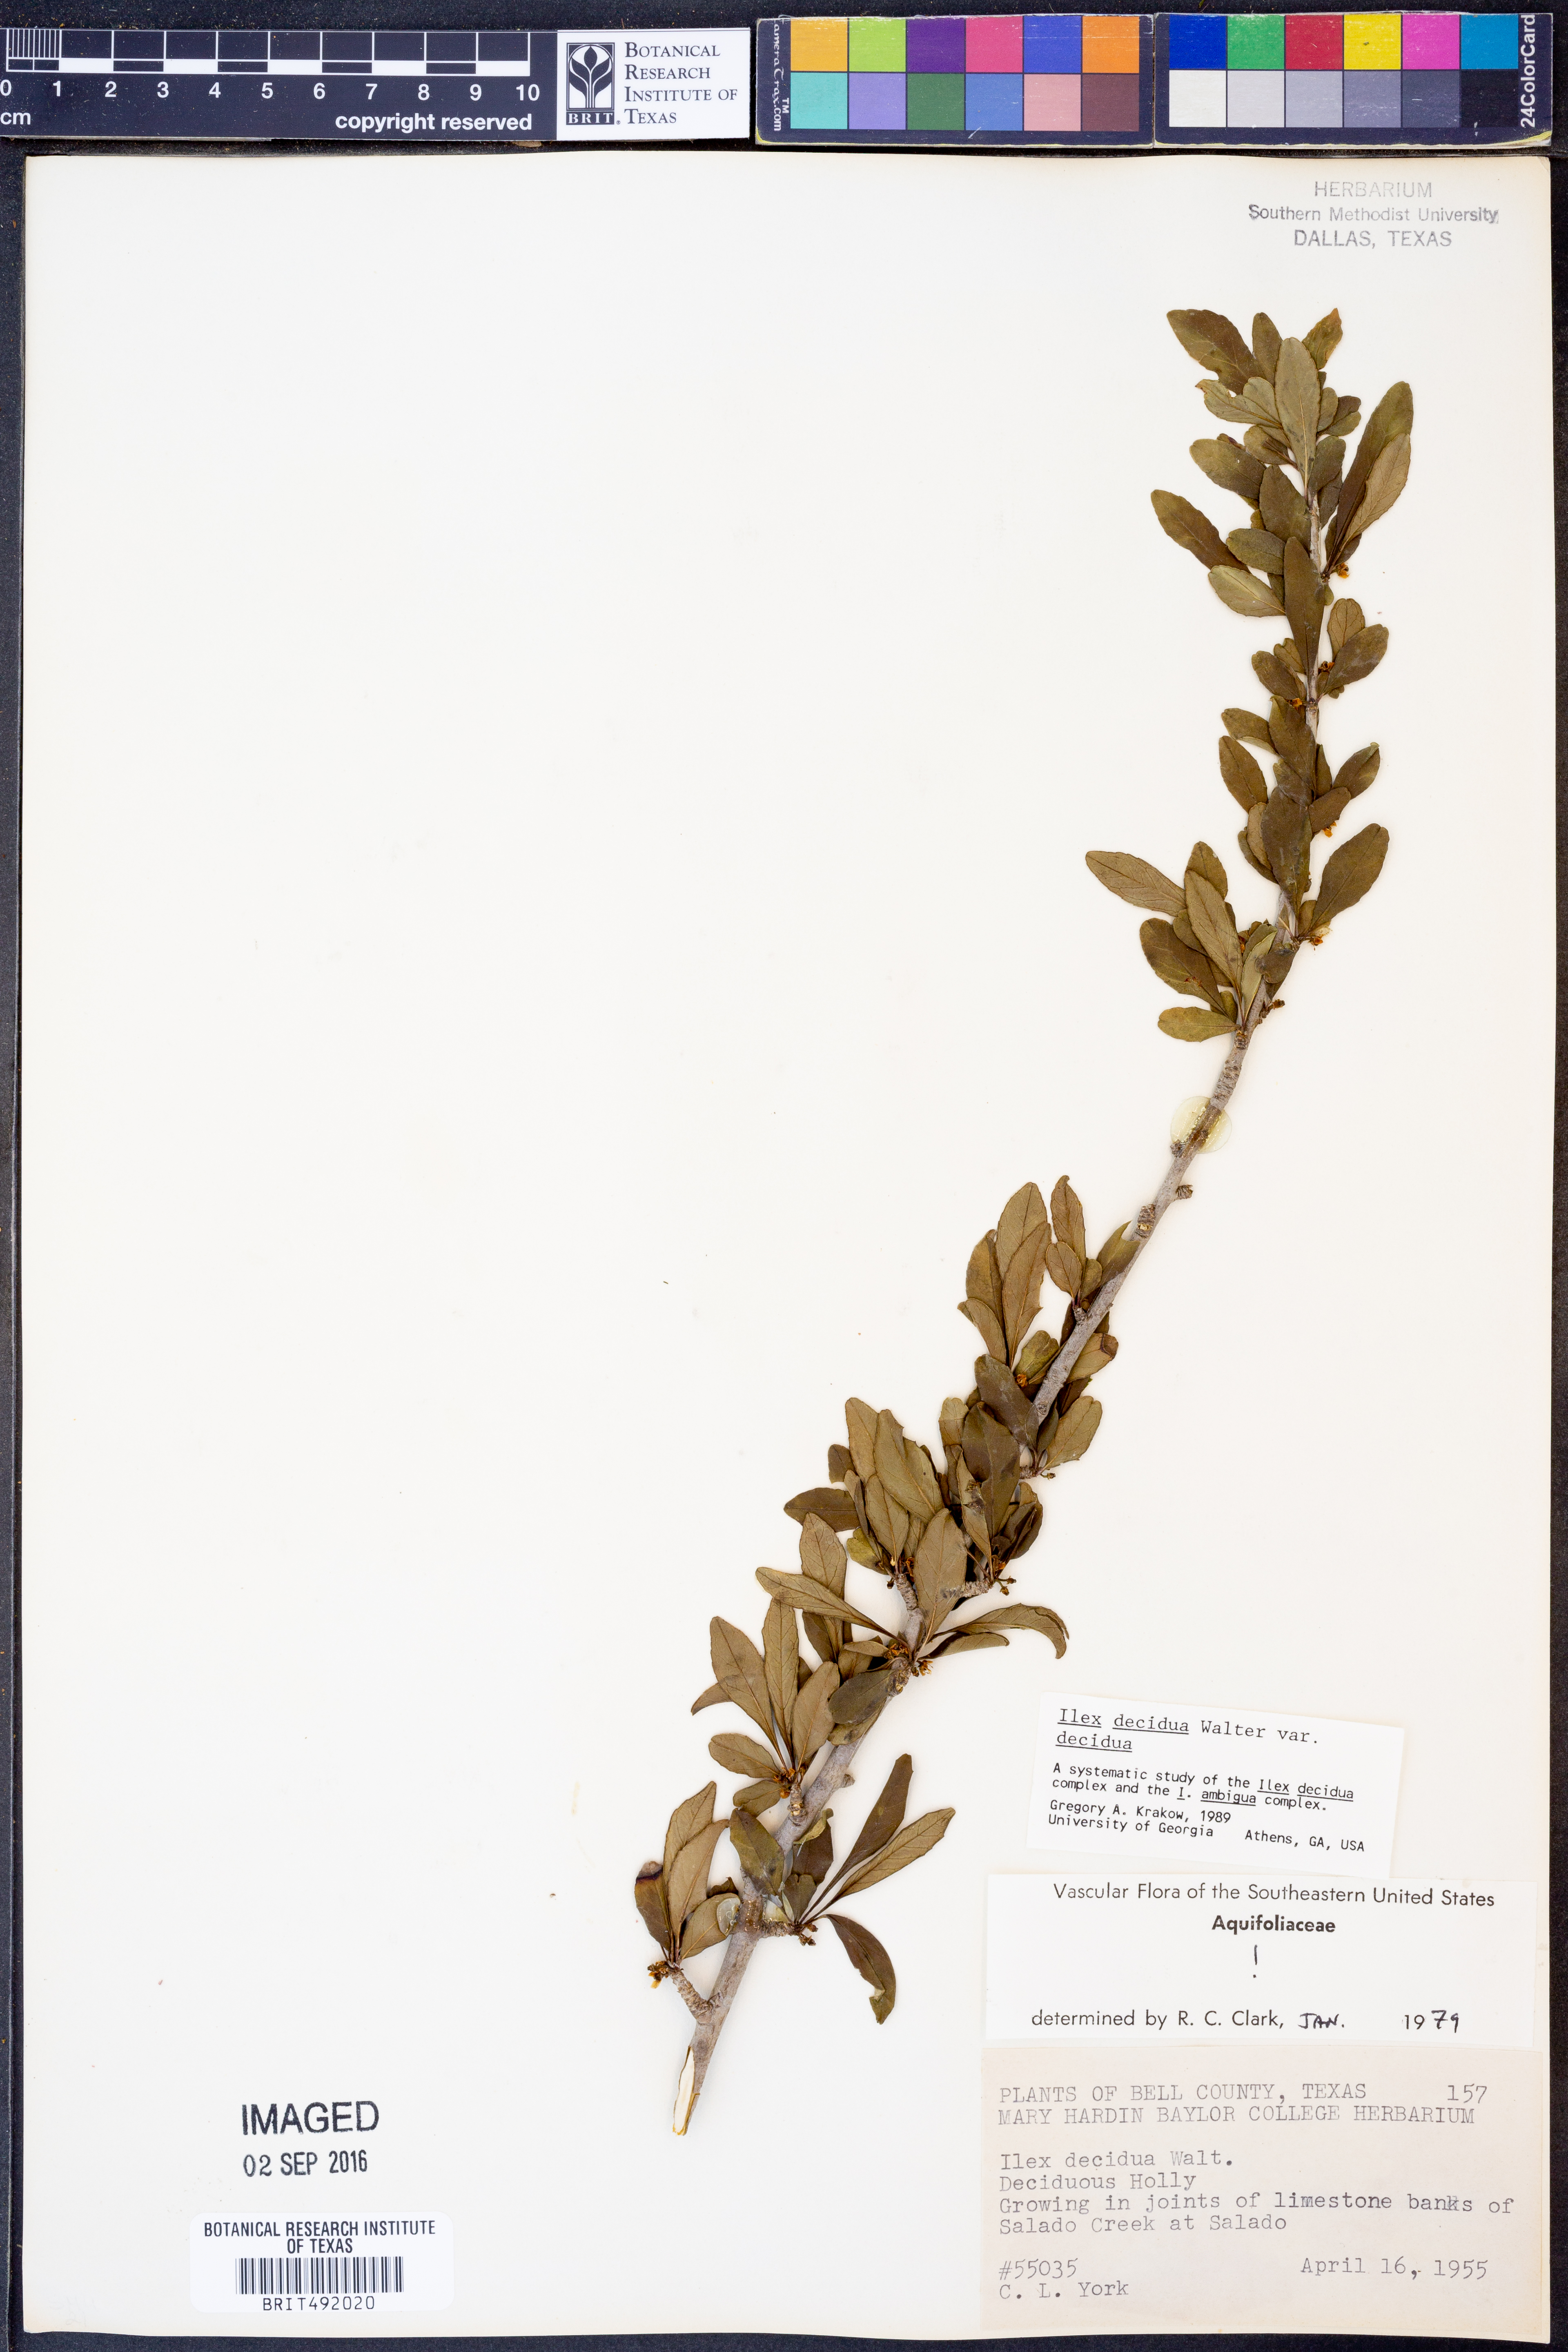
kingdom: Plantae
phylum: Tracheophyta
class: Magnoliopsida
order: Aquifoliales
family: Aquifoliaceae
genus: Ilex
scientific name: Ilex decidua
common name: Possum-haw
